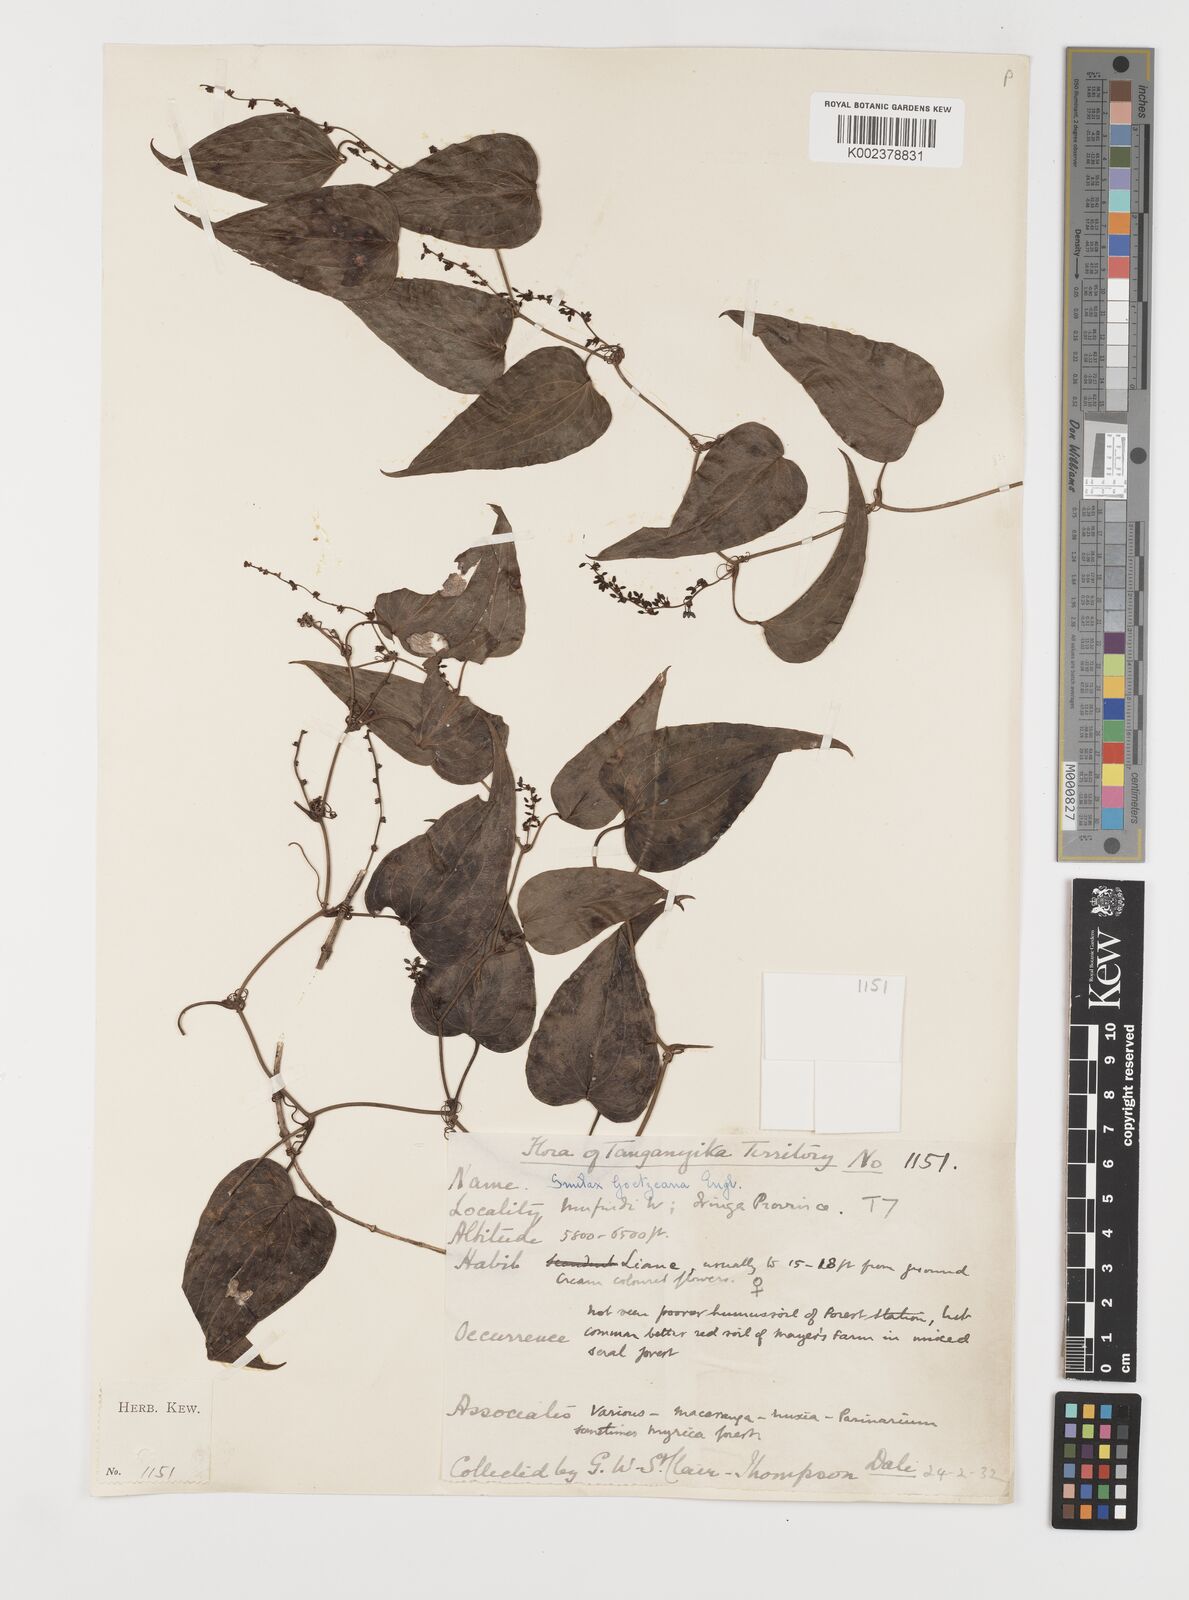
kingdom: Plantae
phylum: Tracheophyta
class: Liliopsida
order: Liliales
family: Smilacaceae
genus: Smilax
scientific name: Smilax aspera
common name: Common smilax
